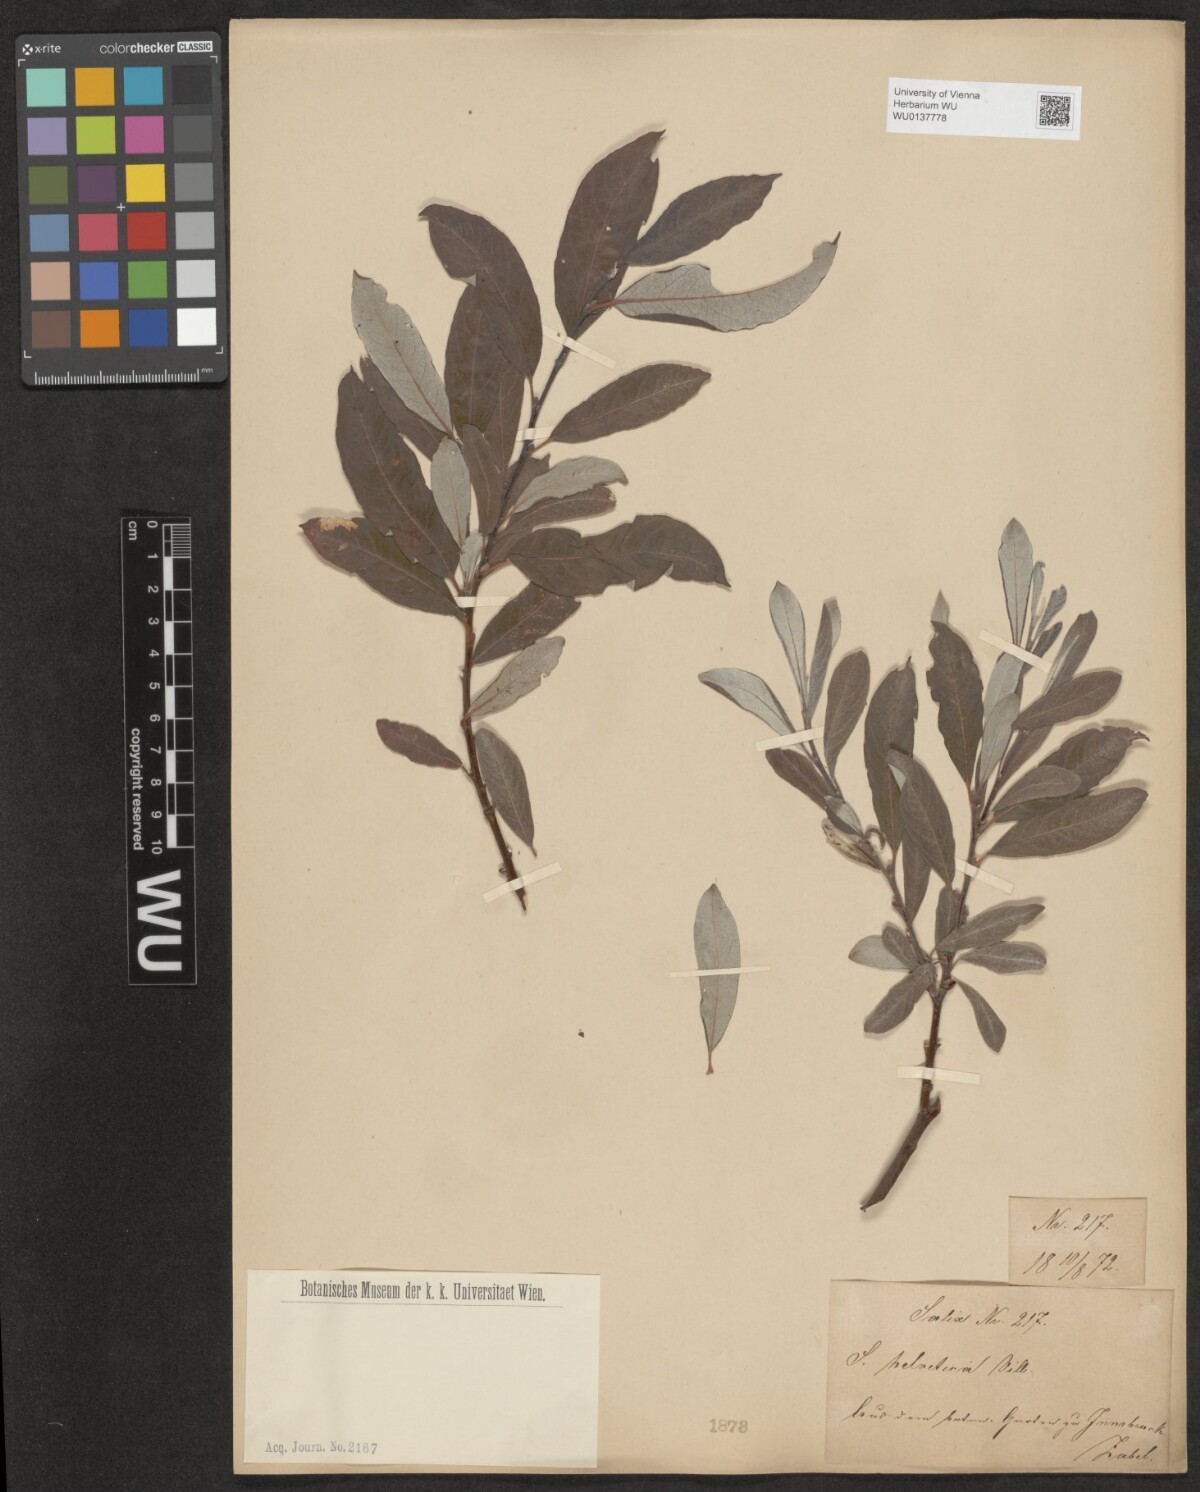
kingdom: Plantae
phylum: Tracheophyta
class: Magnoliopsida
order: Malpighiales
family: Salicaceae
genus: Salix
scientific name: Salix helvetica
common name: Swiss willow
